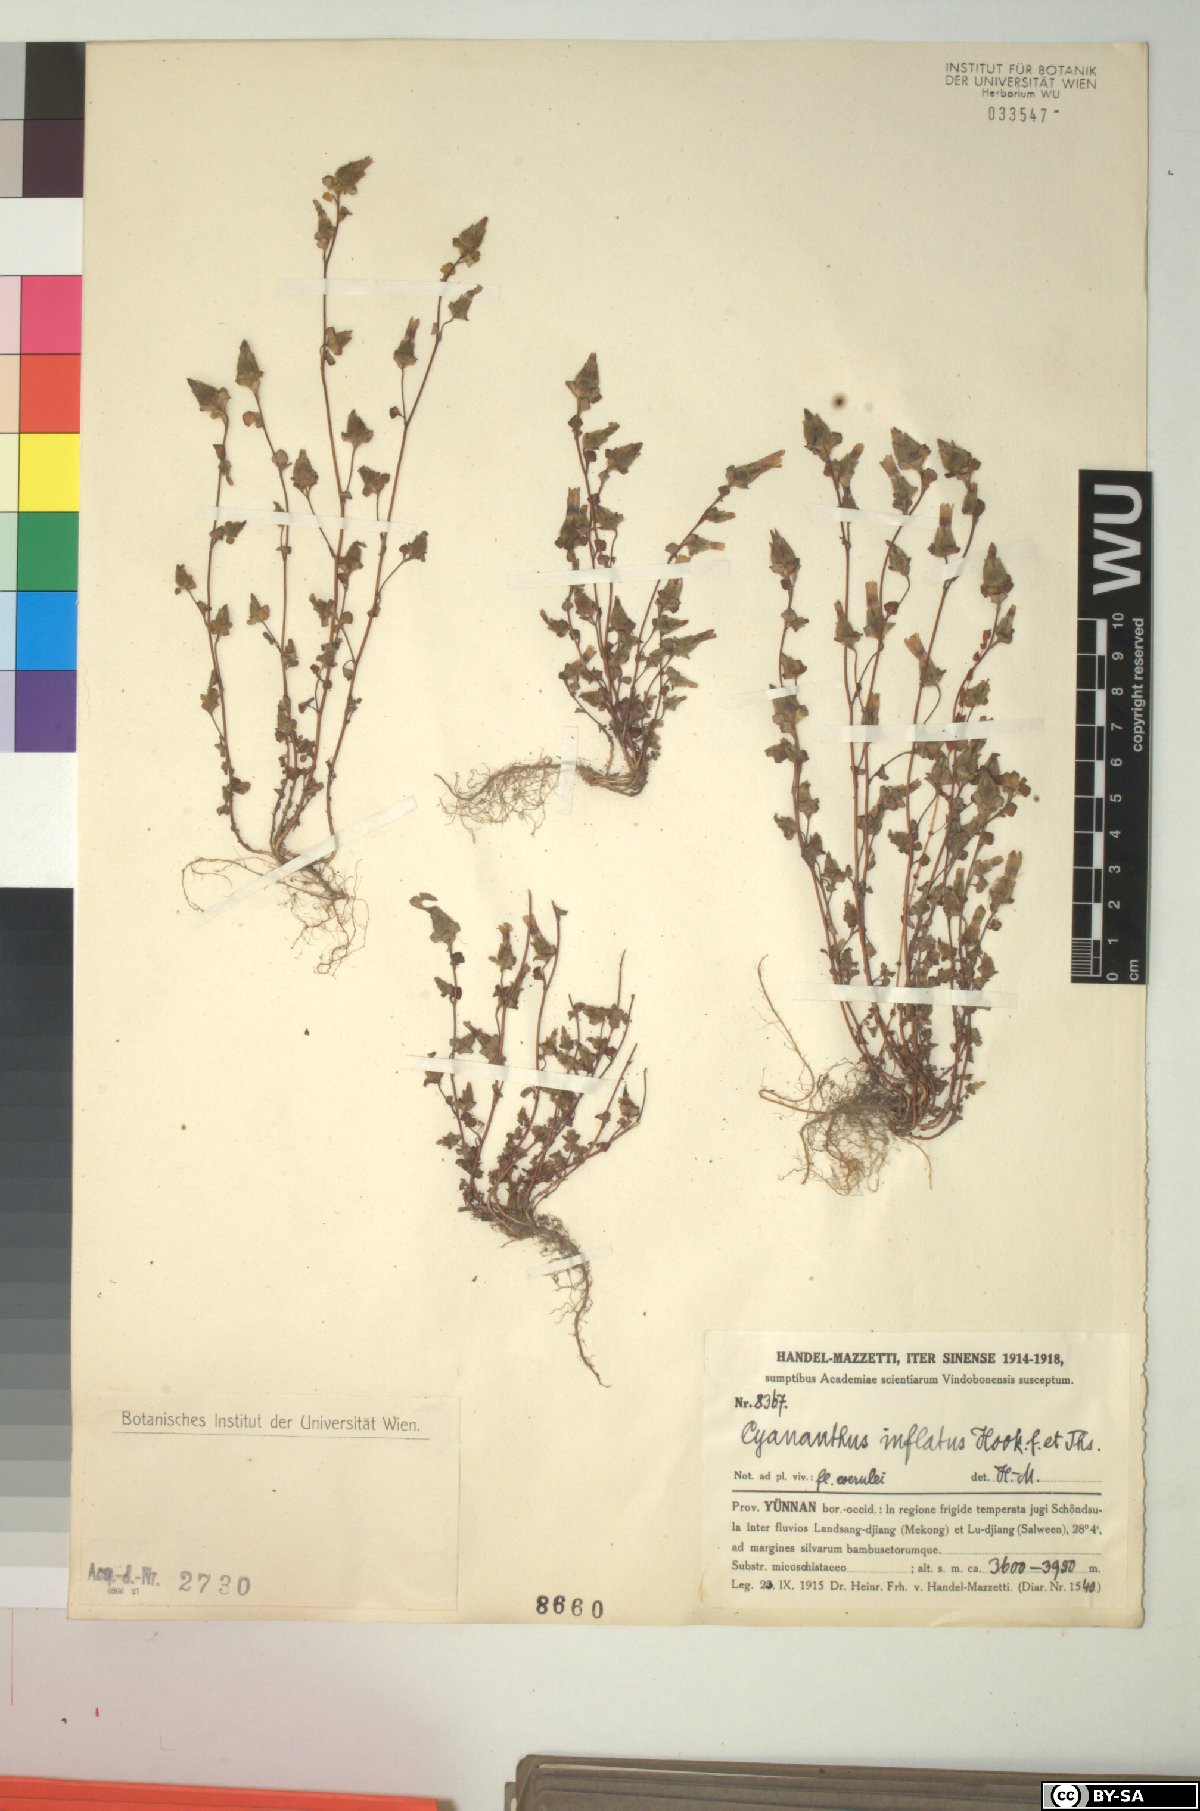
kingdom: Plantae
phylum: Tracheophyta
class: Magnoliopsida
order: Asterales
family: Campanulaceae
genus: Cyananthus
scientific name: Cyananthus inflatus
